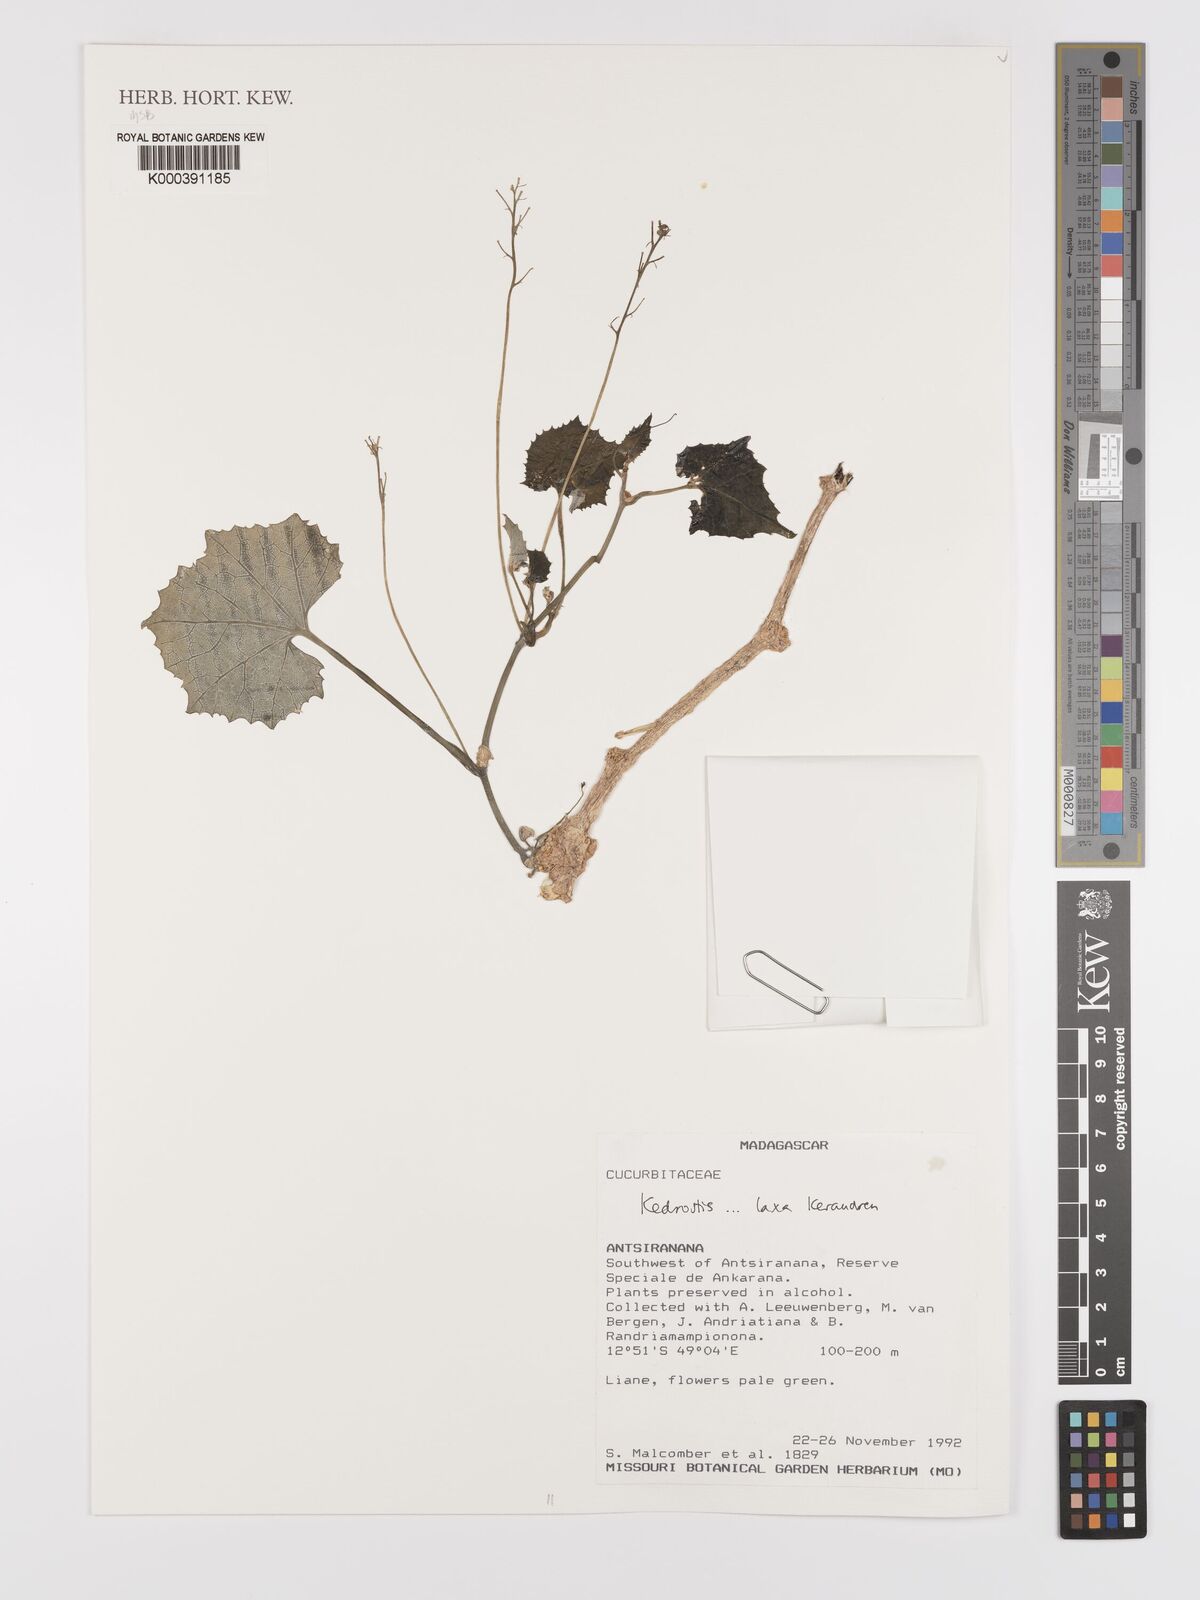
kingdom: Plantae
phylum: Tracheophyta
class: Magnoliopsida
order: Cucurbitales
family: Cucurbitaceae
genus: Kedrostis
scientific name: Kedrostis laxa
